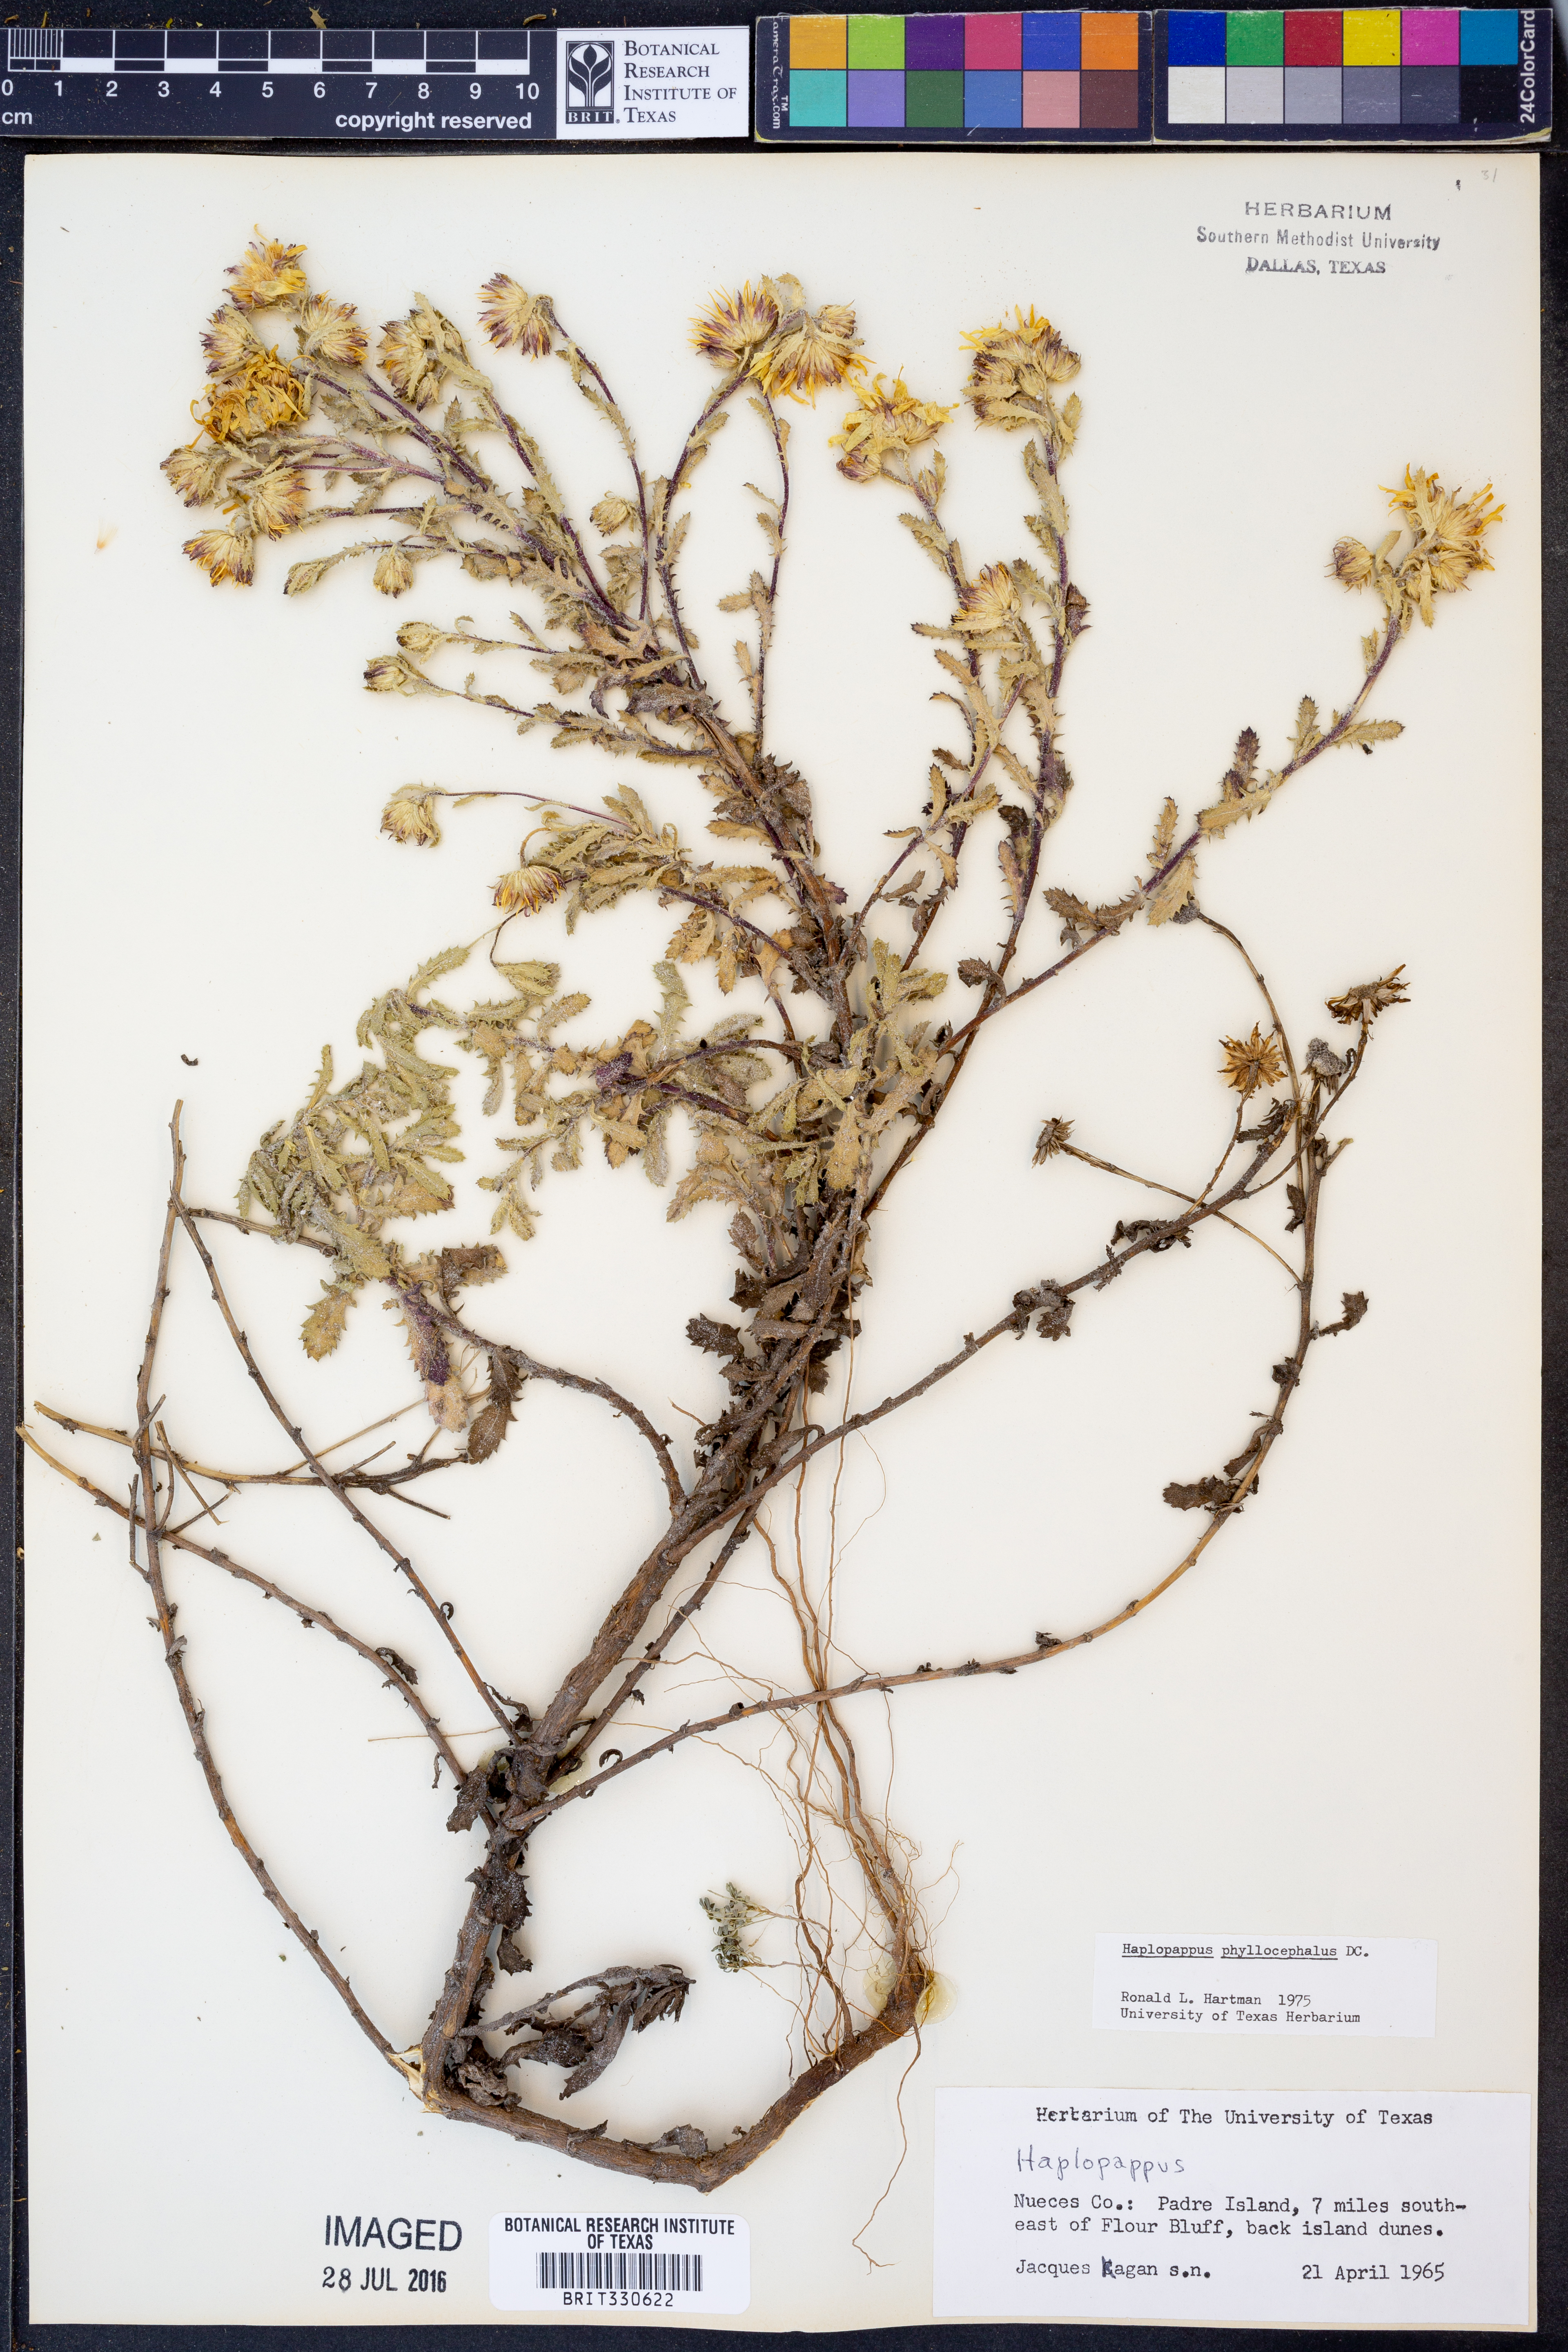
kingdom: Plantae
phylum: Tracheophyta
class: Magnoliopsida
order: Asterales
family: Asteraceae
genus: Rayjacksonia
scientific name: Rayjacksonia phyllocephala
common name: Gulf coast camphor daisy
